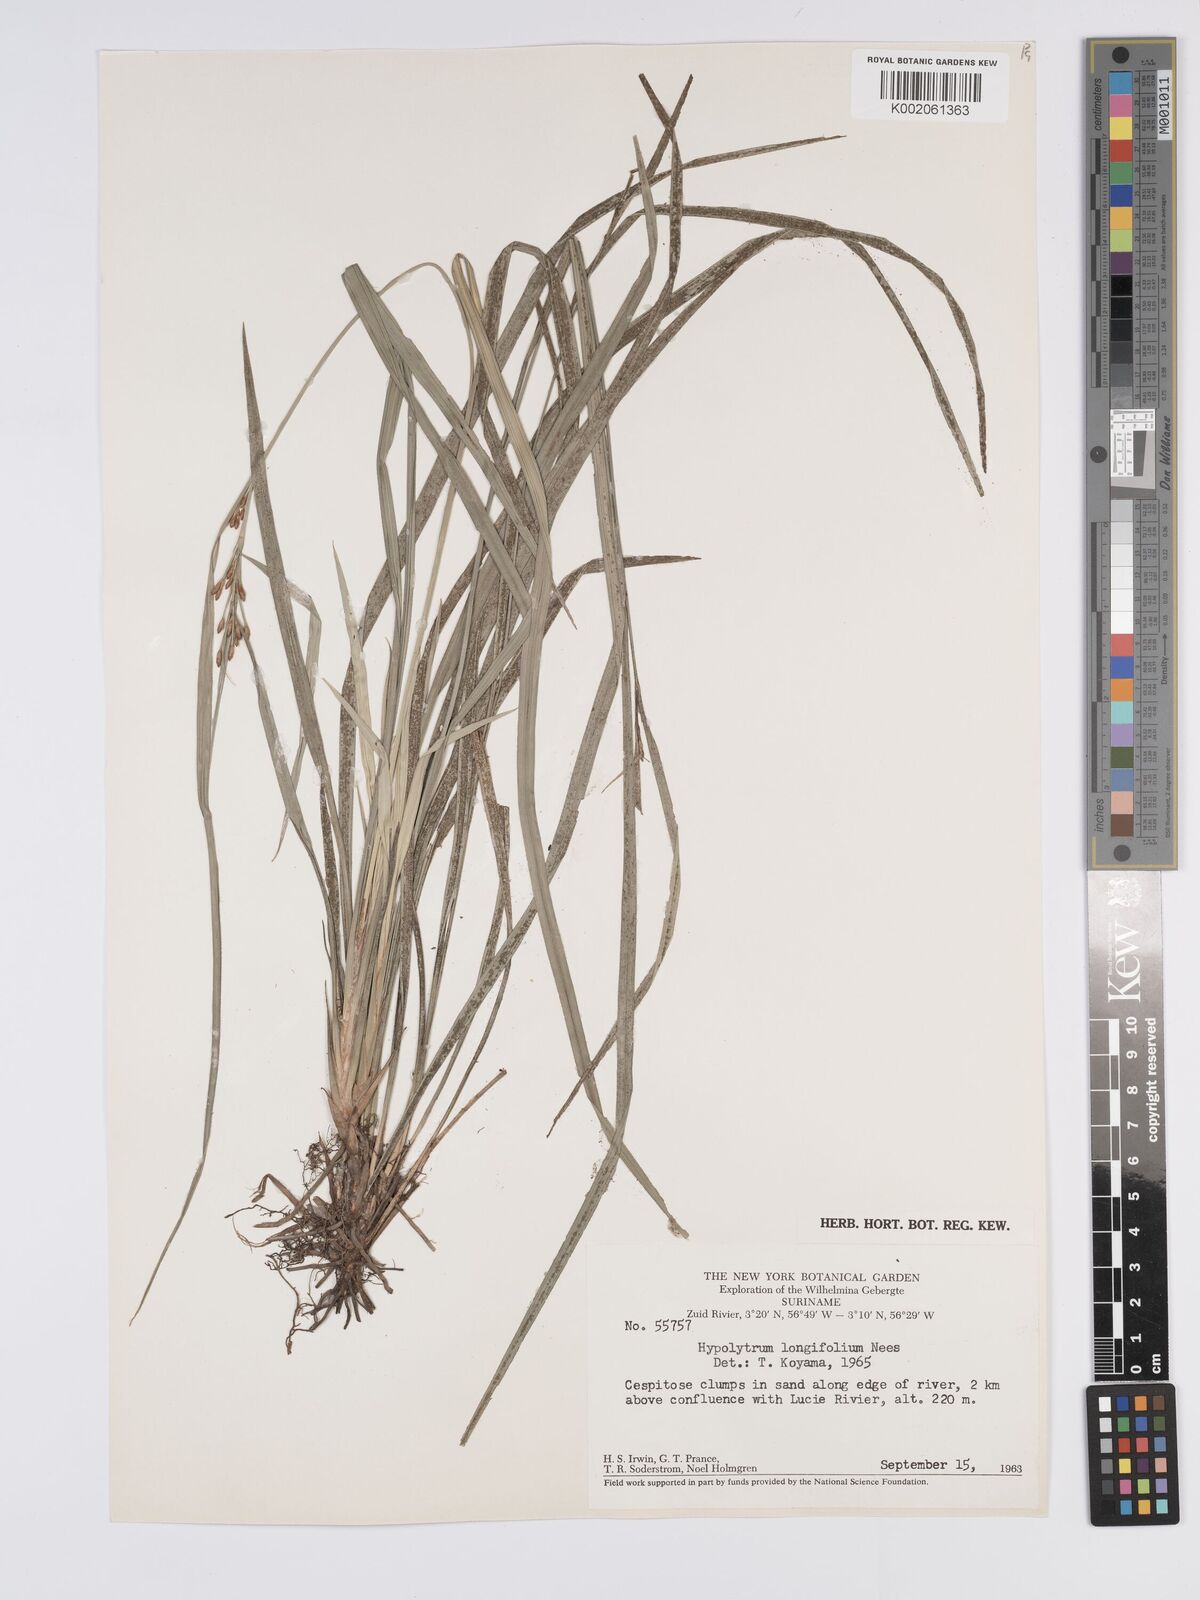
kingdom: Plantae
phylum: Tracheophyta
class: Liliopsida
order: Poales
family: Cyperaceae
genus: Hypolytrum
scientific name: Hypolytrum longifolium
